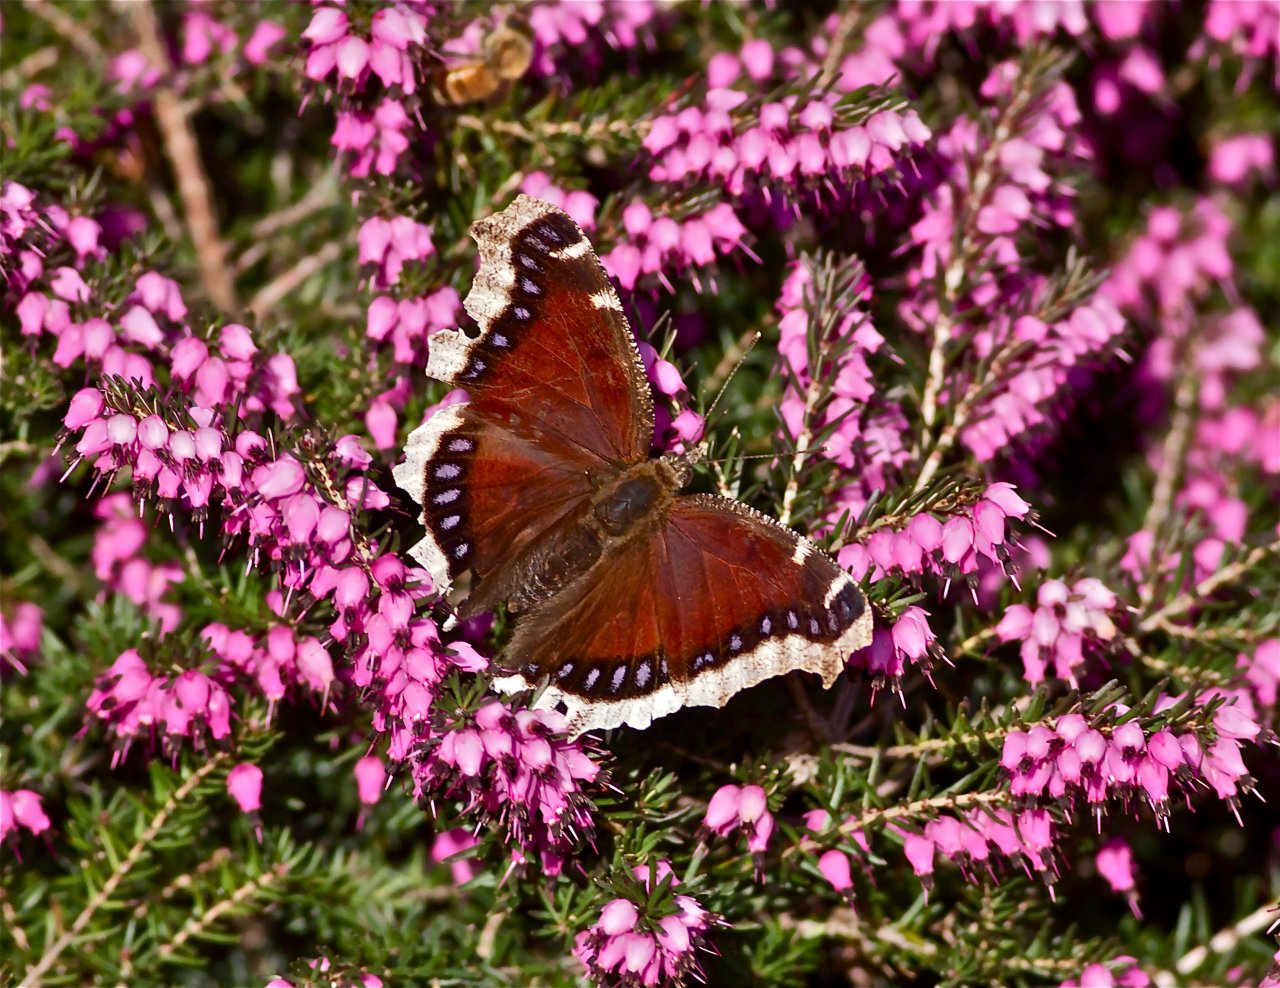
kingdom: Animalia
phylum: Arthropoda
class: Insecta
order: Lepidoptera
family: Nymphalidae
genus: Nymphalis
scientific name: Nymphalis antiopa
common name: Mourning Cloak
